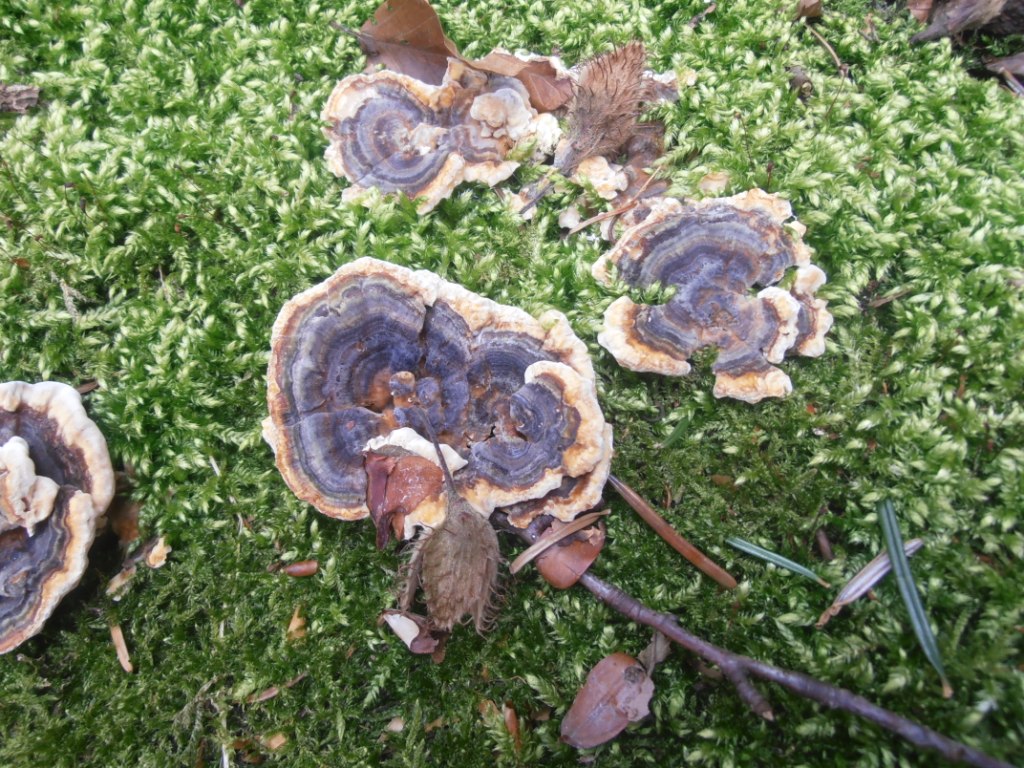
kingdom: Fungi
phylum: Basidiomycota
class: Agaricomycetes
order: Polyporales
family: Polyporaceae
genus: Trametes
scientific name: Trametes versicolor
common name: broget læderporesvamp
